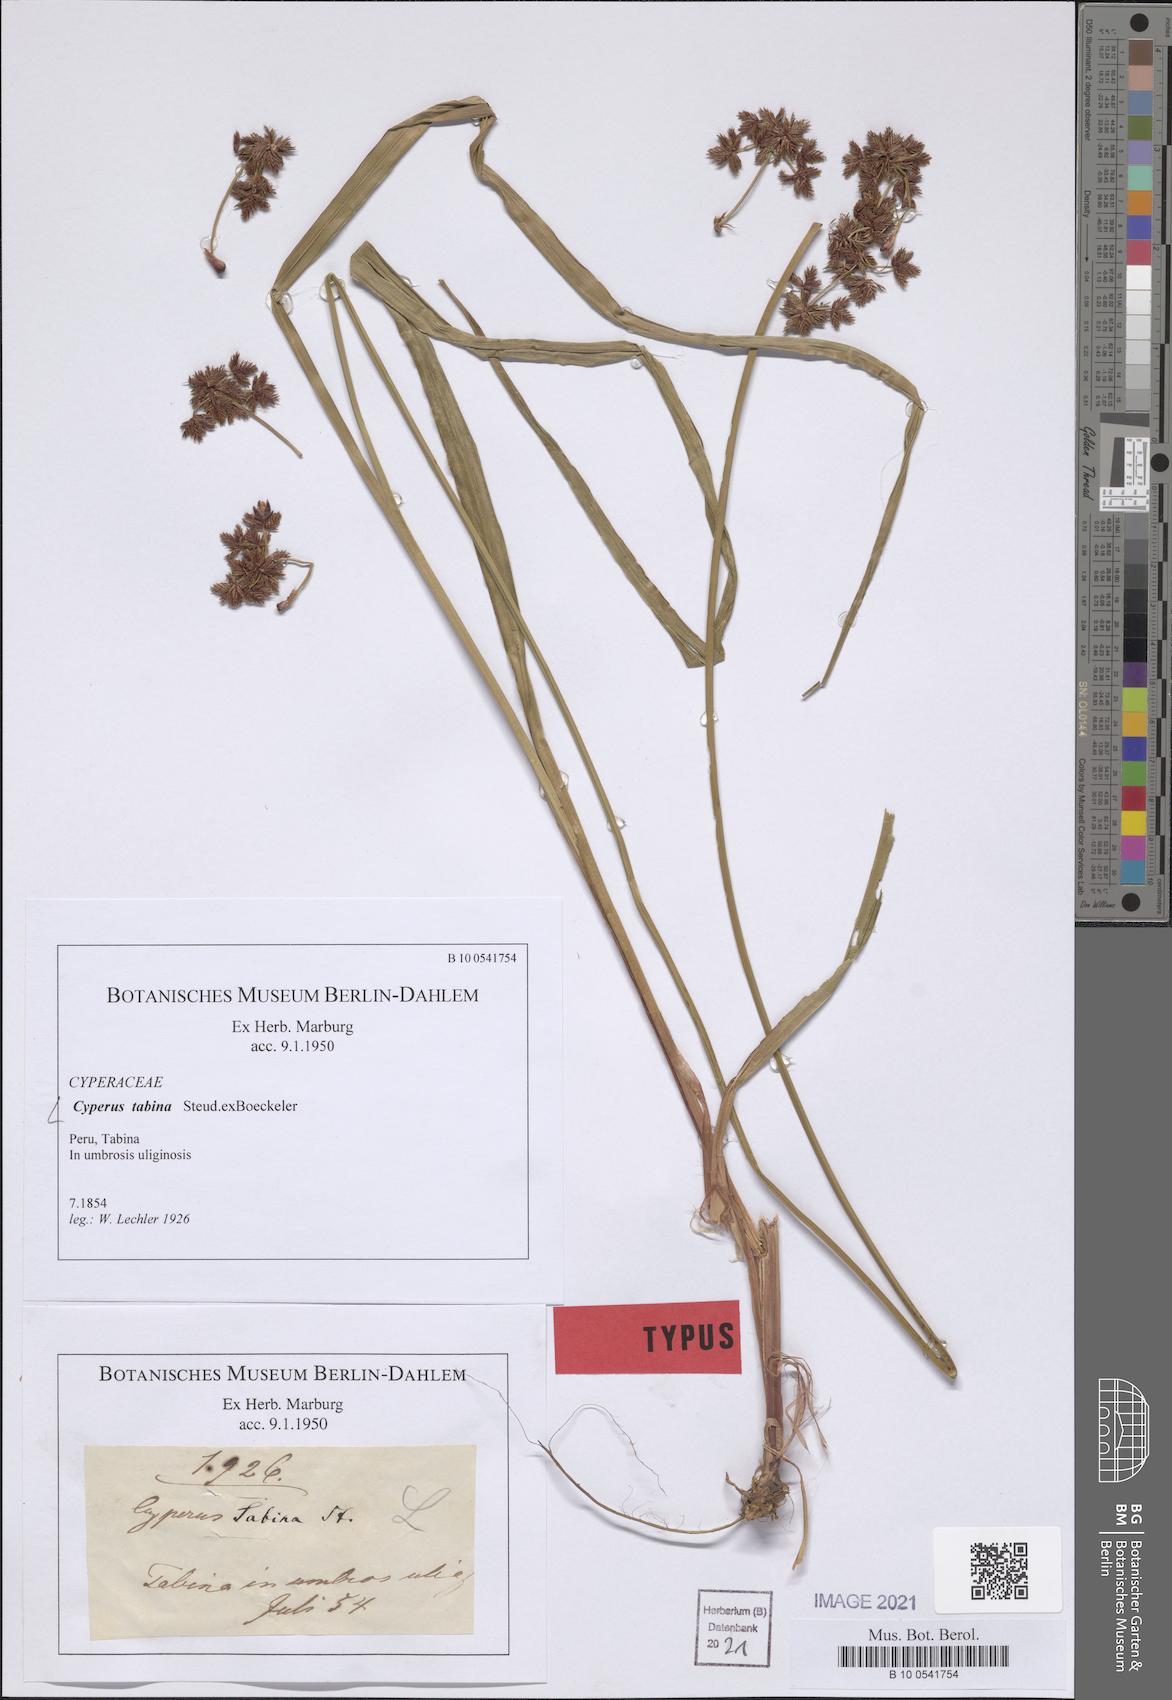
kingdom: Plantae
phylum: Tracheophyta
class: Liliopsida
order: Poales
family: Cyperaceae
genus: Cyperus
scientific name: Cyperus tabina
